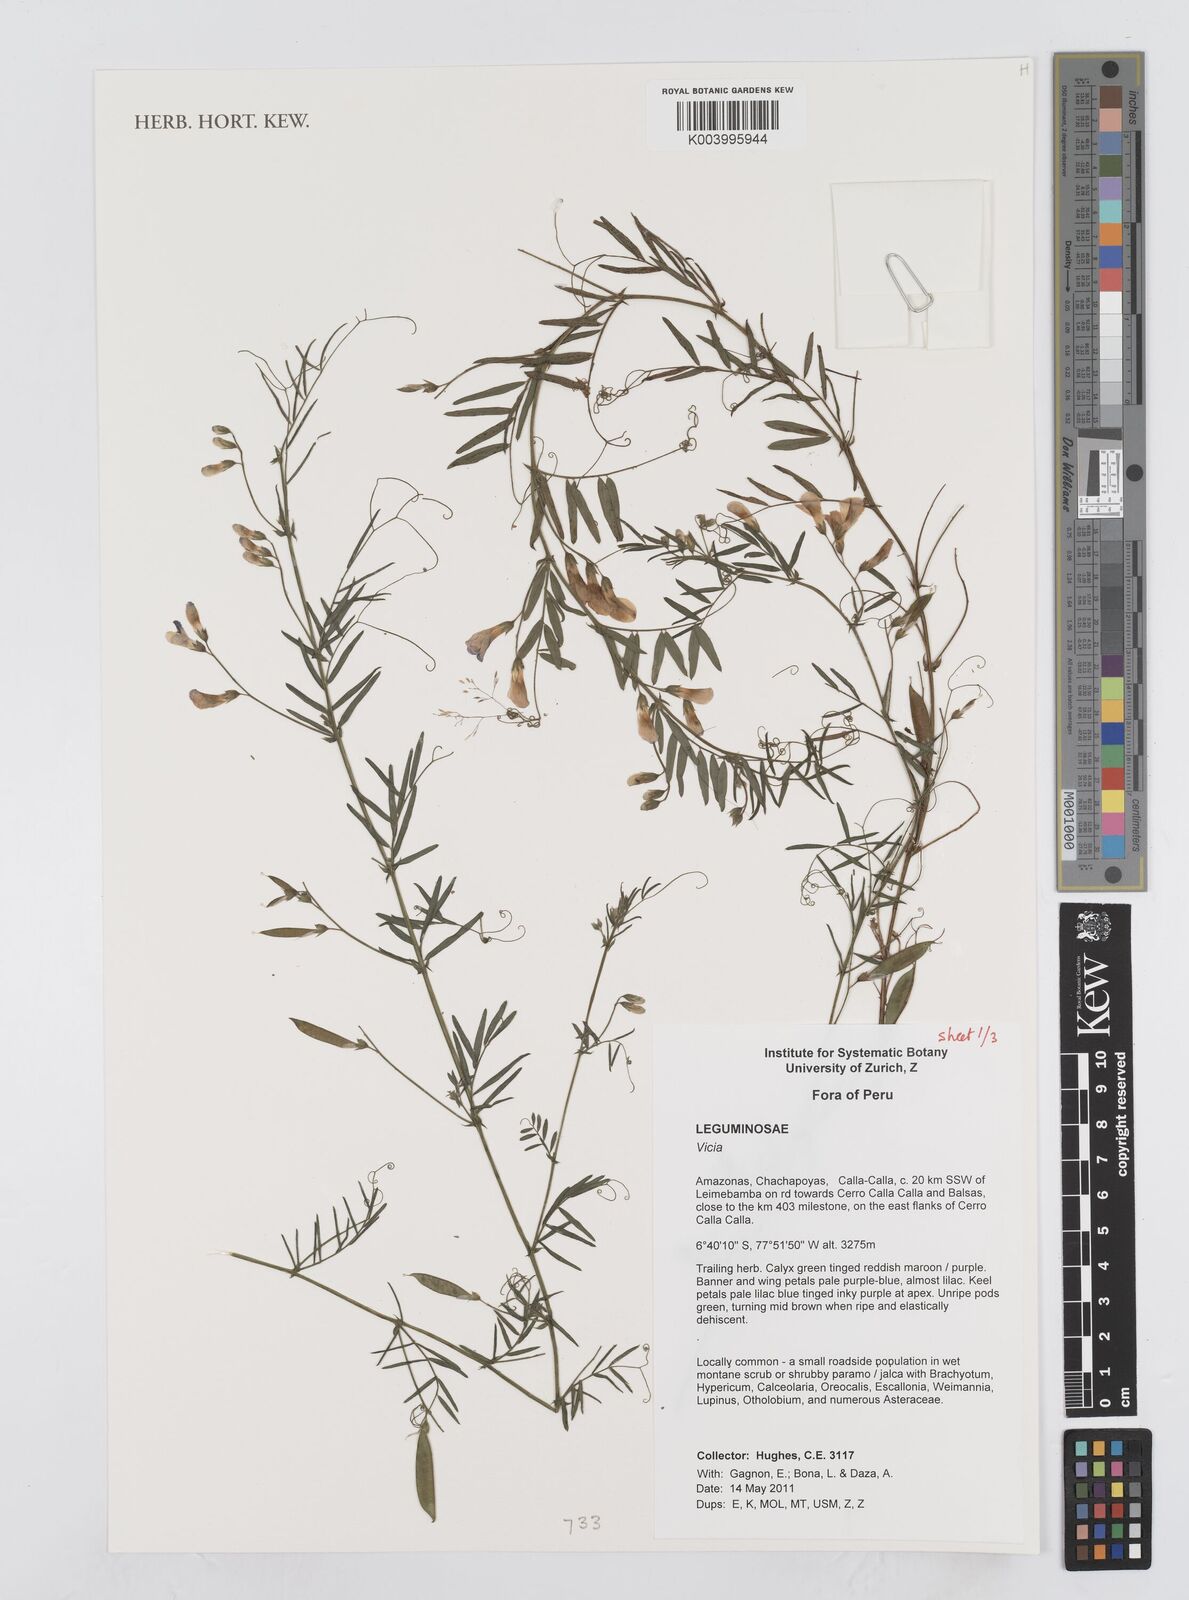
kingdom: Plantae
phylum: Tracheophyta
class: Magnoliopsida
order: Fabales
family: Fabaceae
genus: Vicia
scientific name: Vicia
